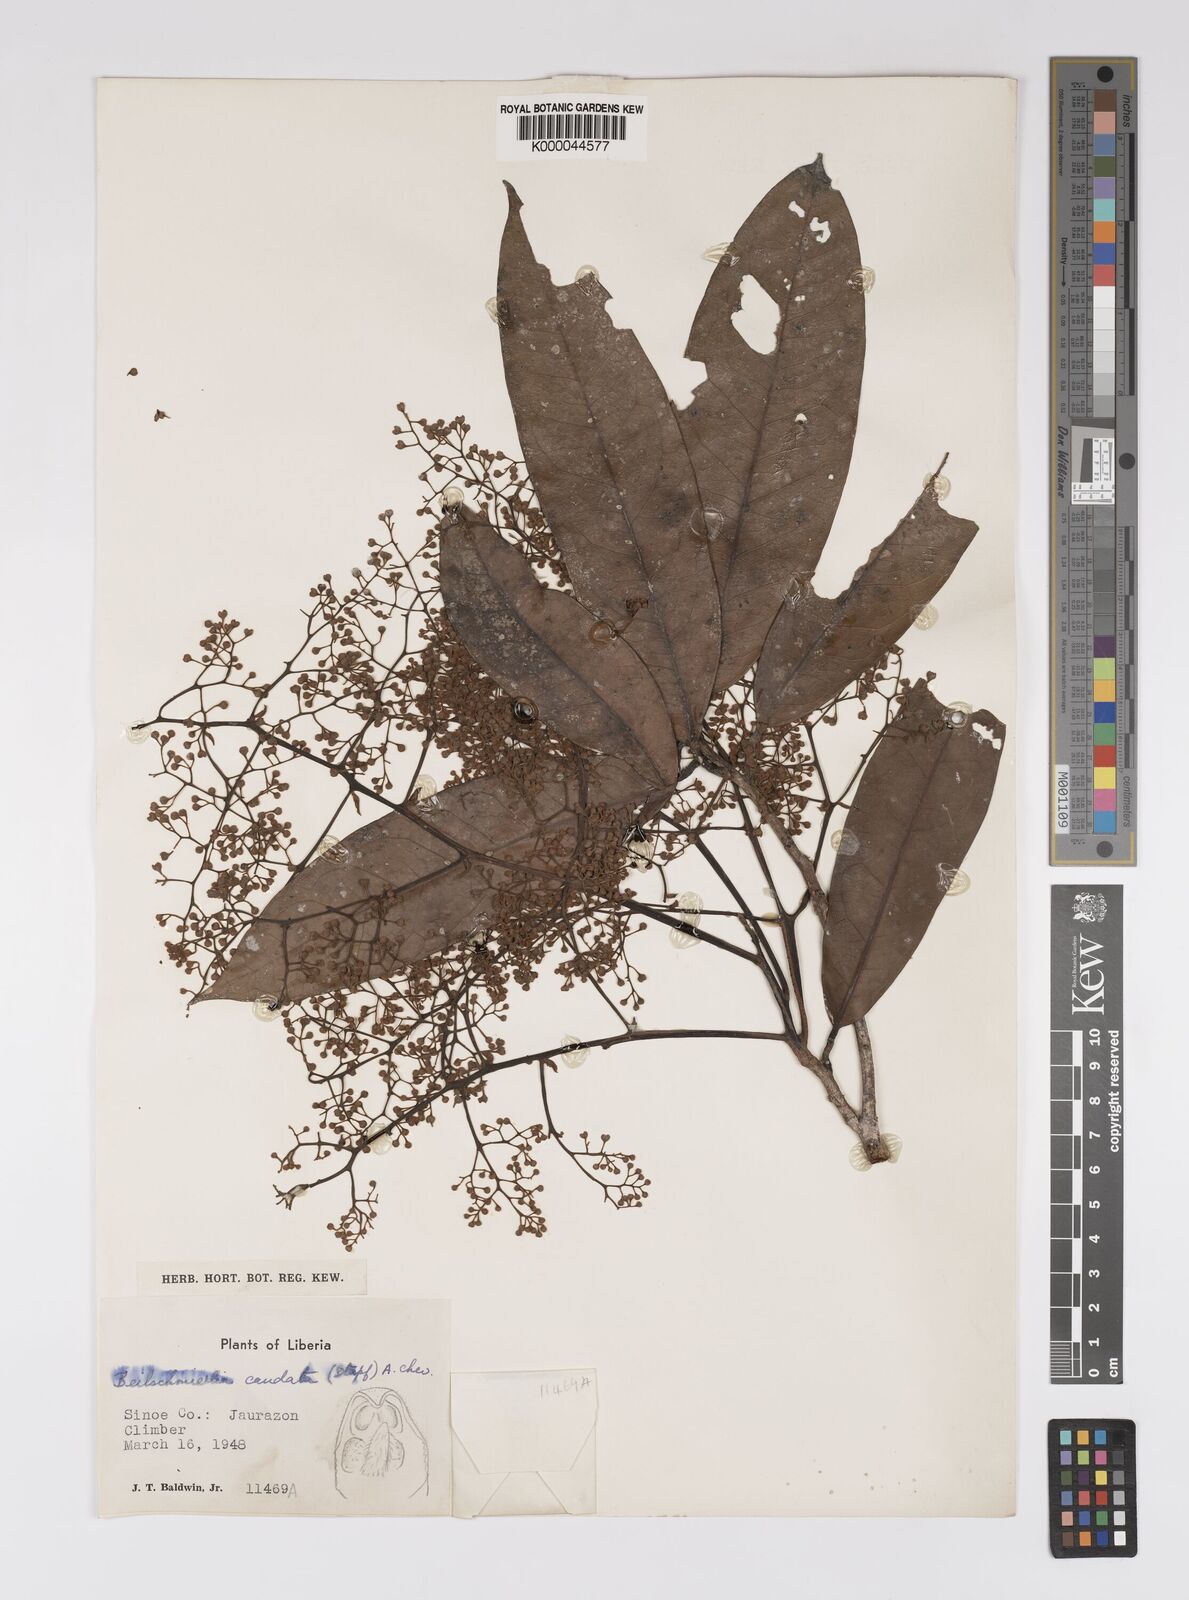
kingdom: Plantae
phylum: Tracheophyta
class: Magnoliopsida
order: Laurales
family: Lauraceae
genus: Beilschmiedia
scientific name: Beilschmiedia caudata
